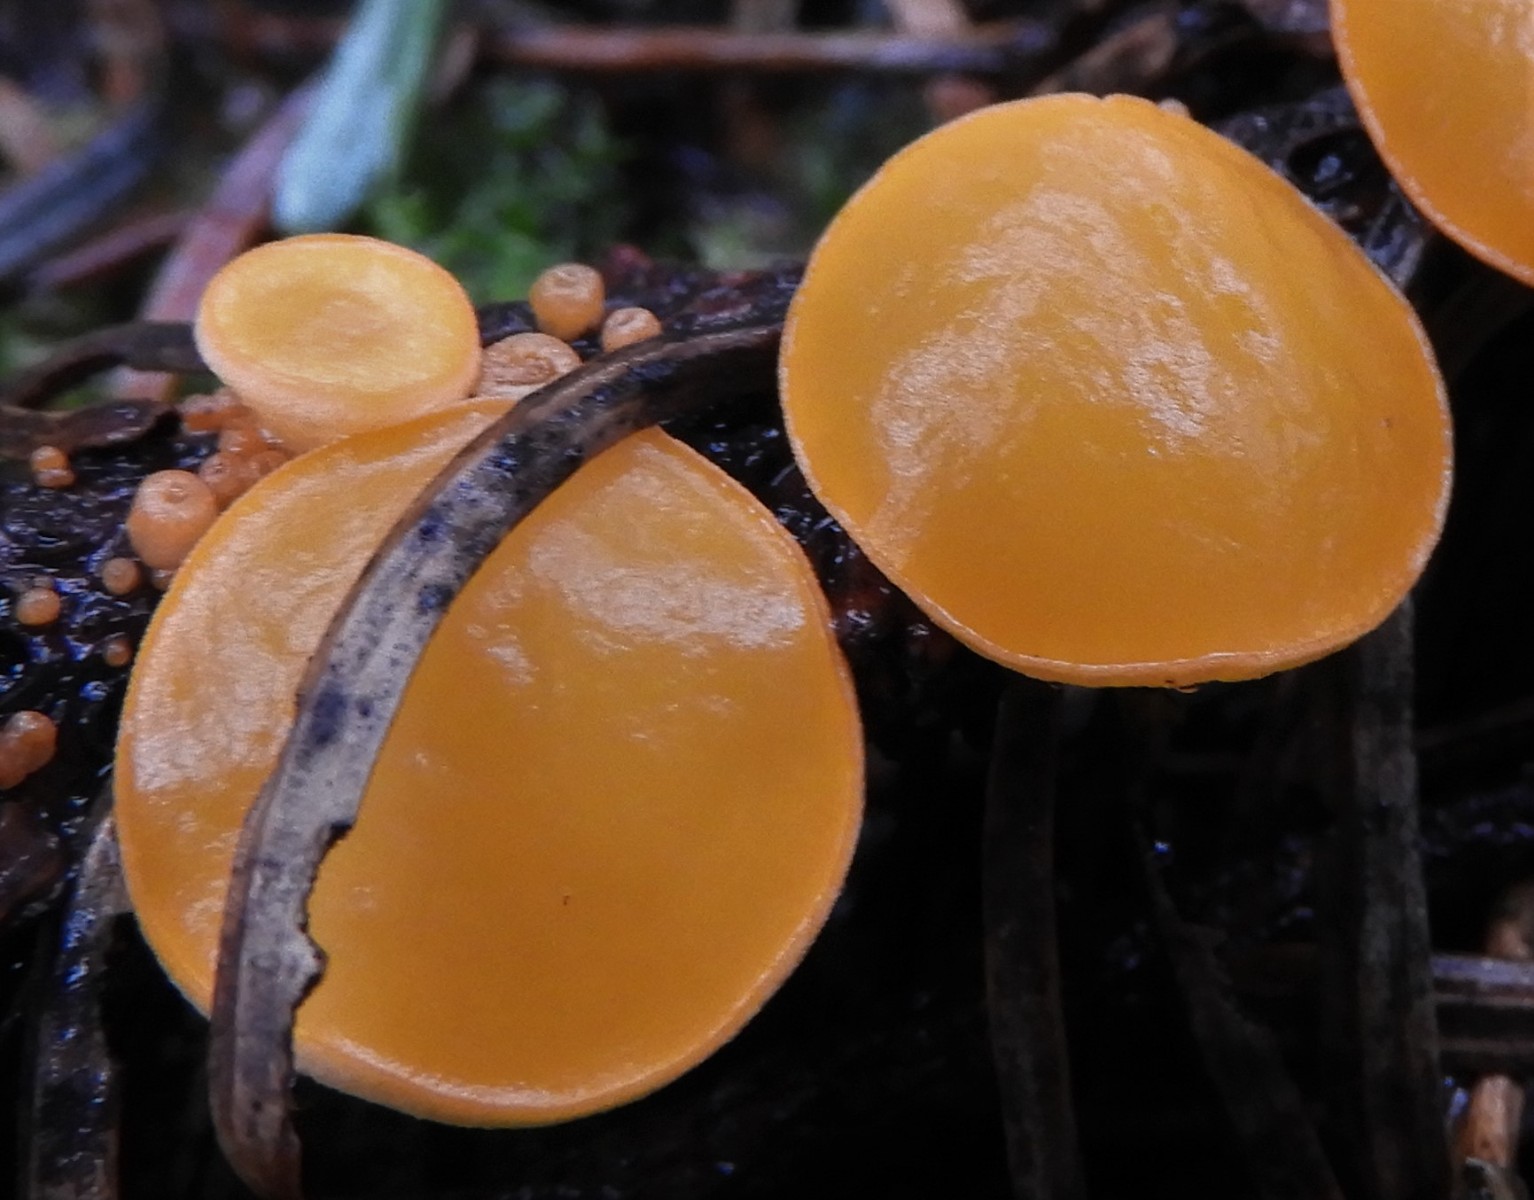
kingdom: Fungi
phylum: Ascomycota
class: Pezizomycetes
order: Pezizales
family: Sarcoscyphaceae
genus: Pithya
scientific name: Pithya vulgaris
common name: stor dukatbæger
